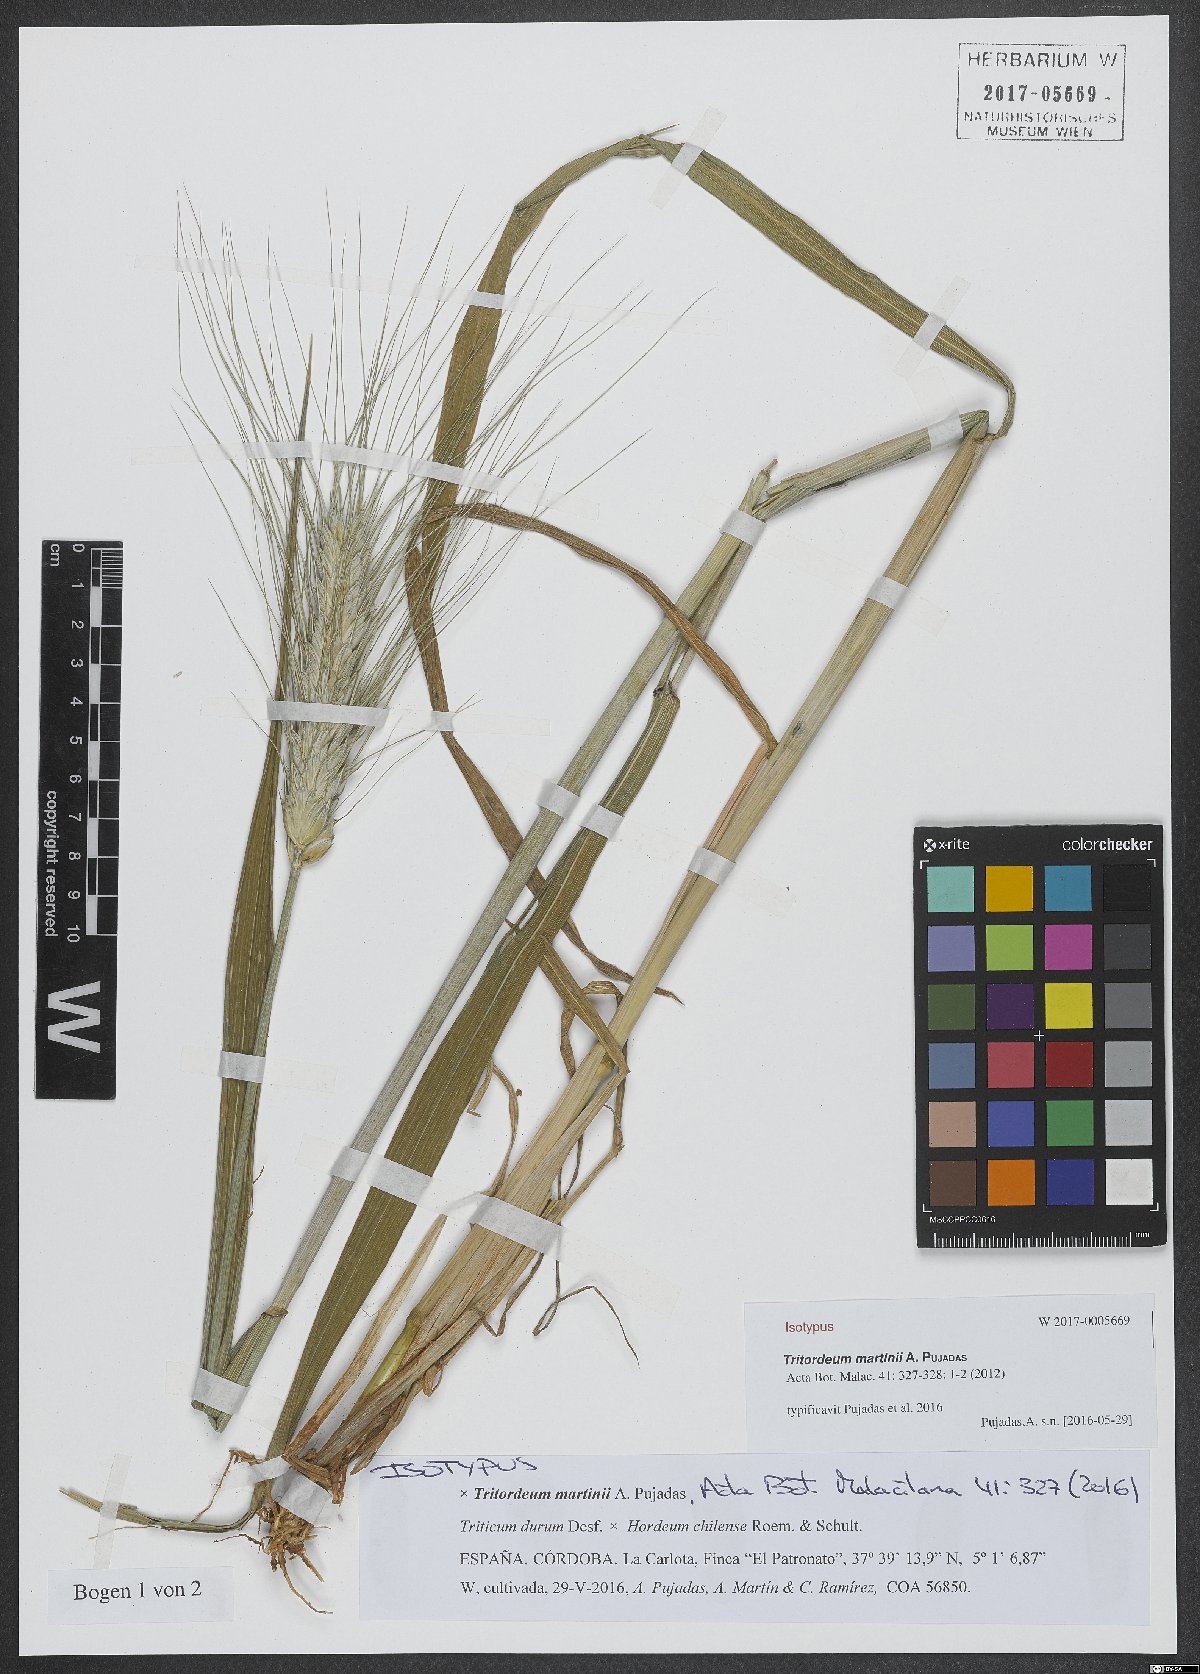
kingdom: Plantae
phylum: Tracheophyta
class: Liliopsida
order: Poales
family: Poaceae
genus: Tritordeum
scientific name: Tritordeum martinii
